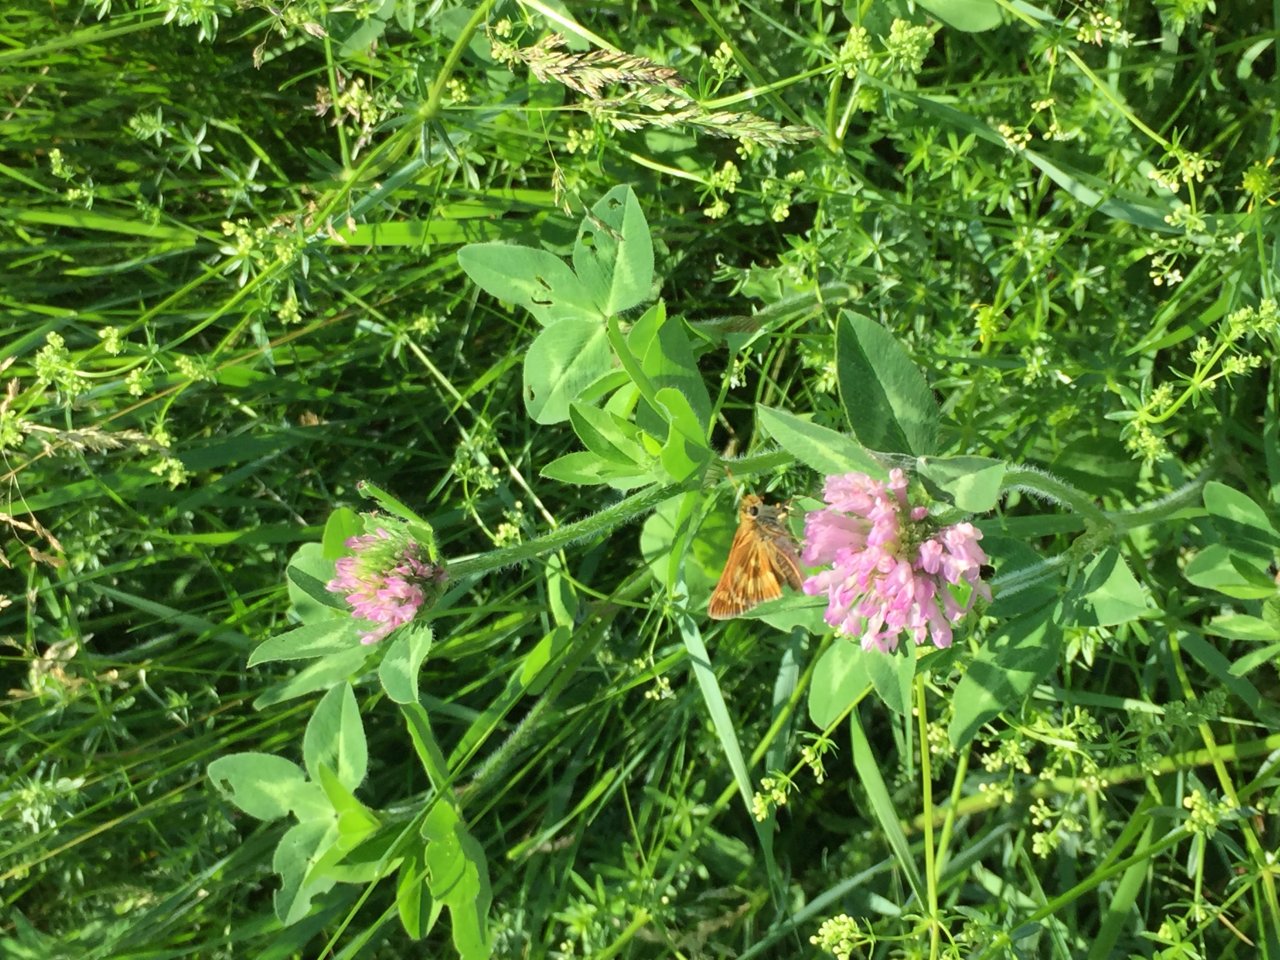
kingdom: Animalia
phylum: Arthropoda
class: Insecta
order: Lepidoptera
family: Hesperiidae
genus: Polites
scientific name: Polites
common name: Long Dash Skipper
